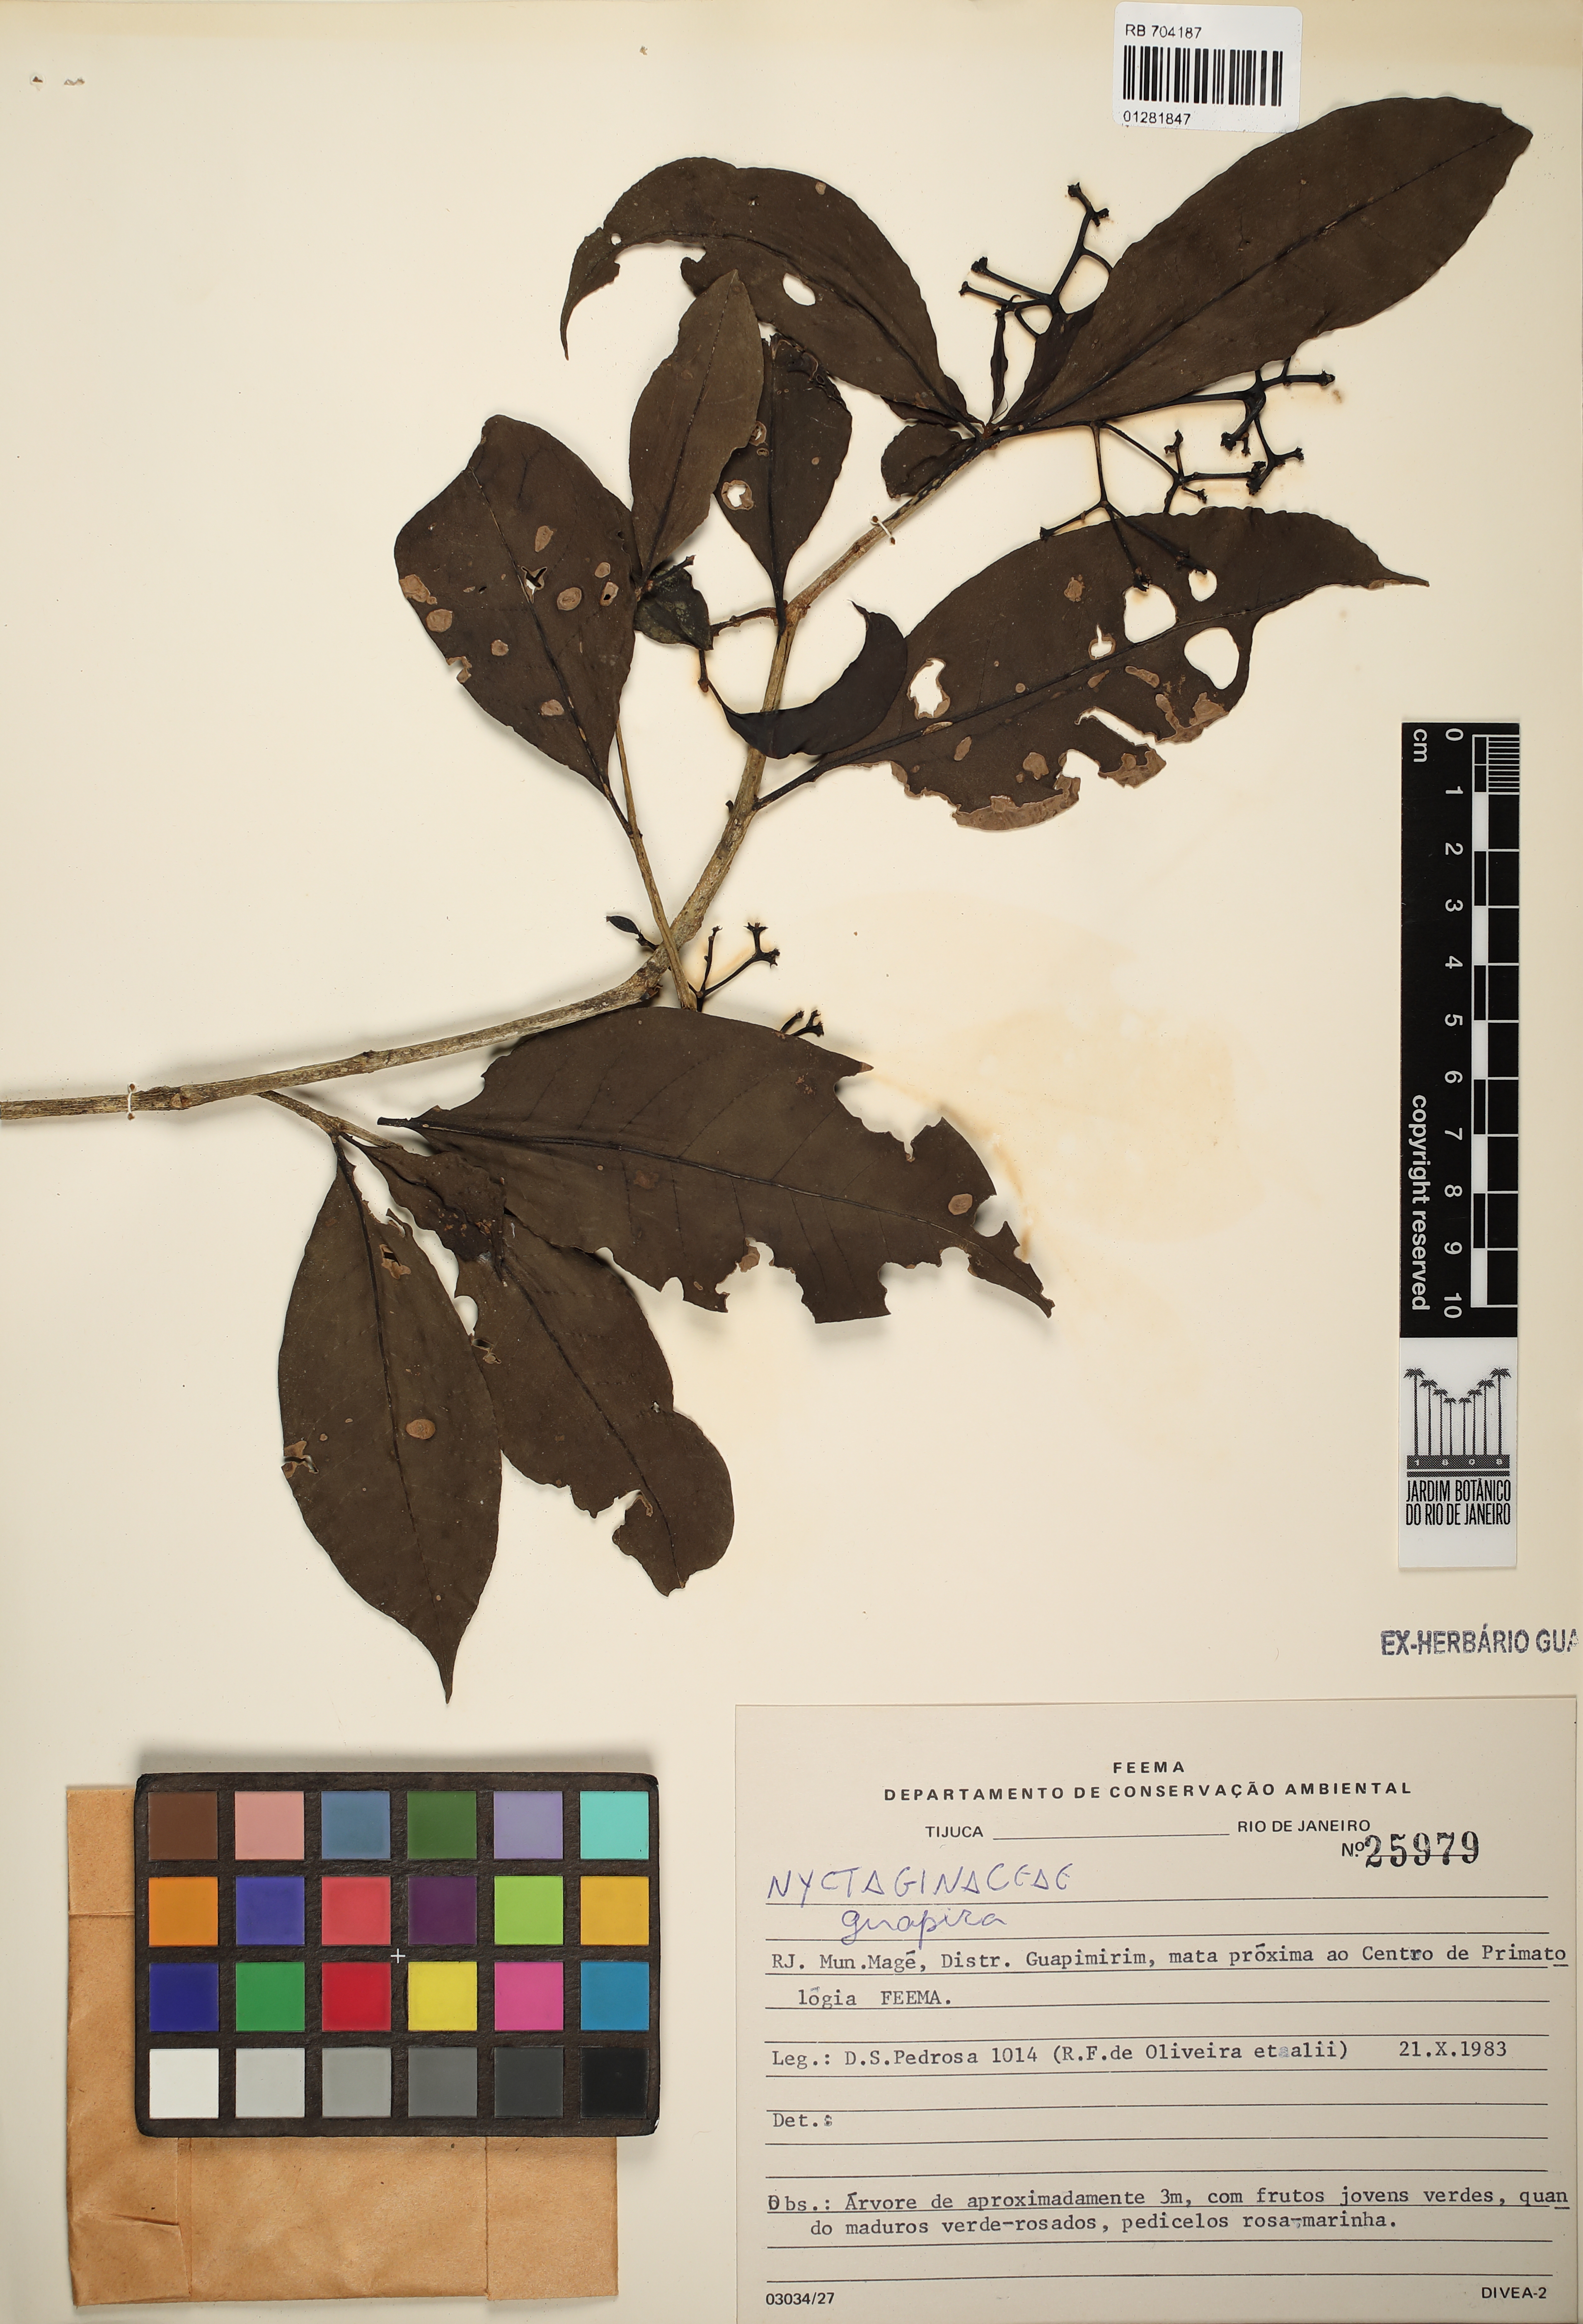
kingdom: Plantae
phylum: Tracheophyta
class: Magnoliopsida
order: Caryophyllales
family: Nyctaginaceae
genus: Guapira
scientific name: Guapira
